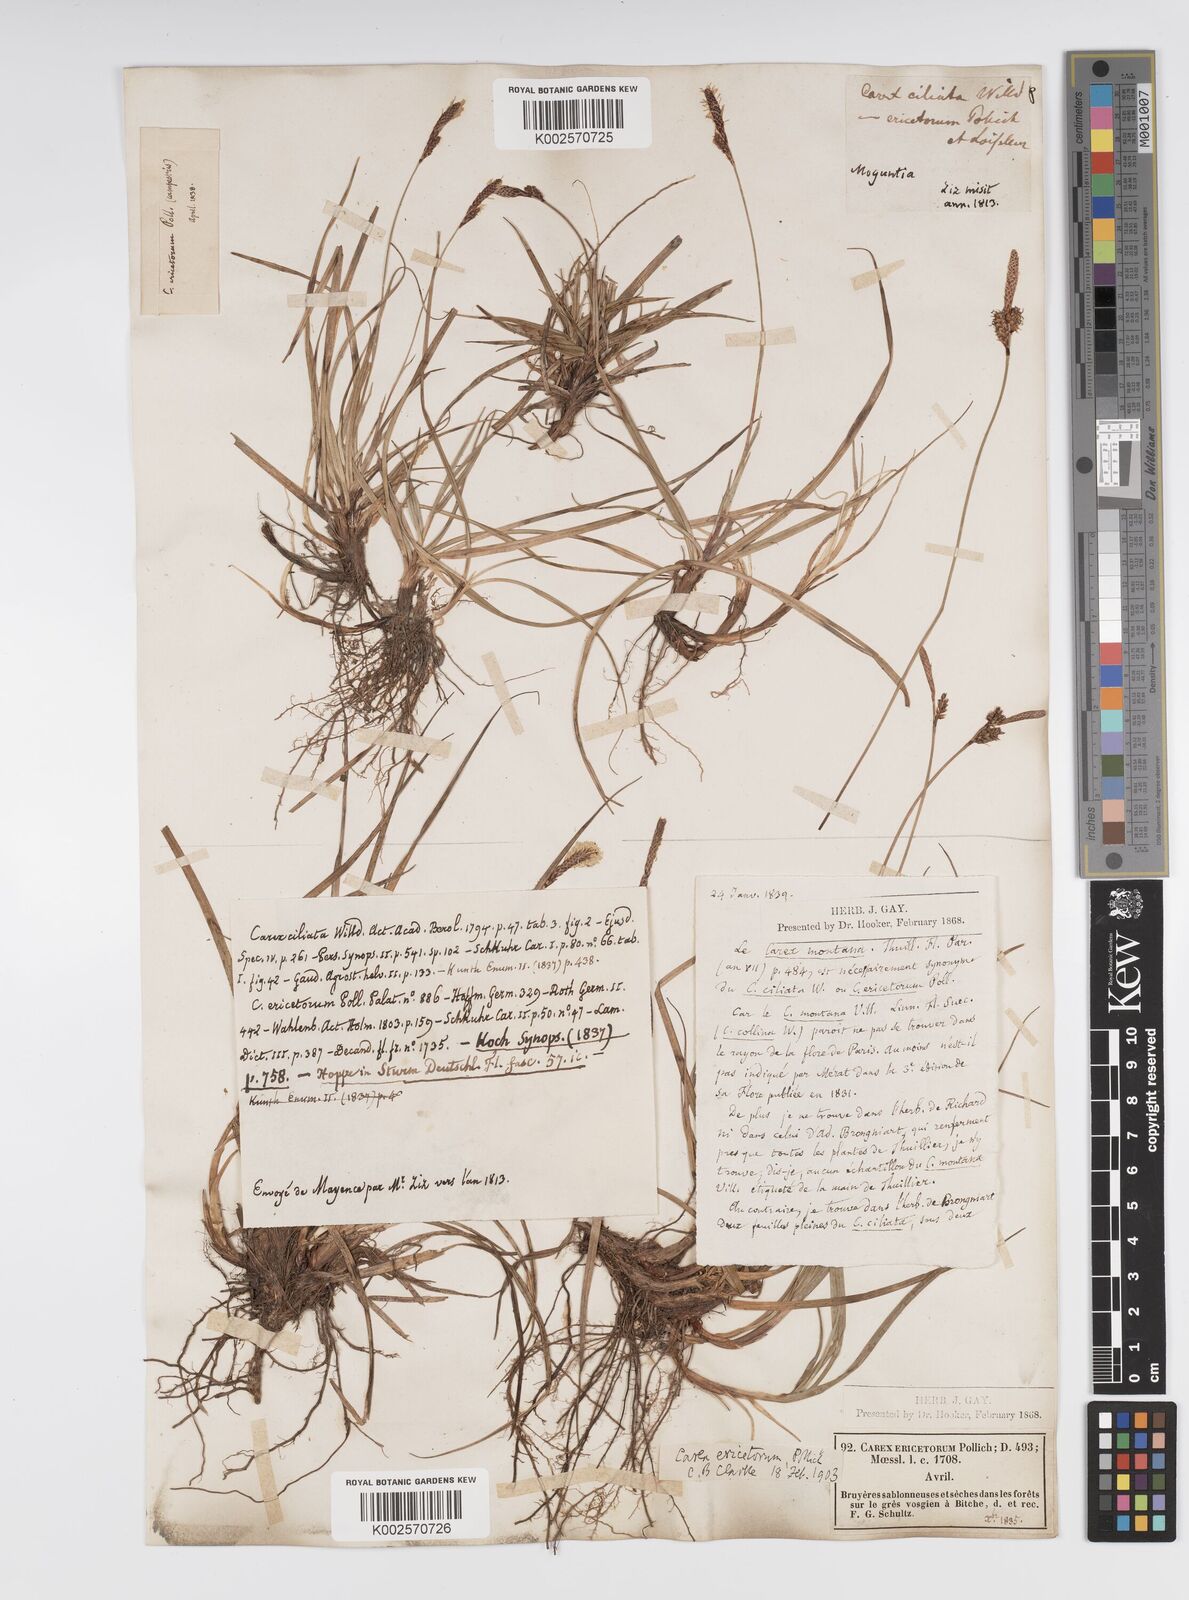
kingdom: Plantae
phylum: Tracheophyta
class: Liliopsida
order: Poales
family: Cyperaceae
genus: Carex
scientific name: Carex ericetorum
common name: Rare spring-sedge
